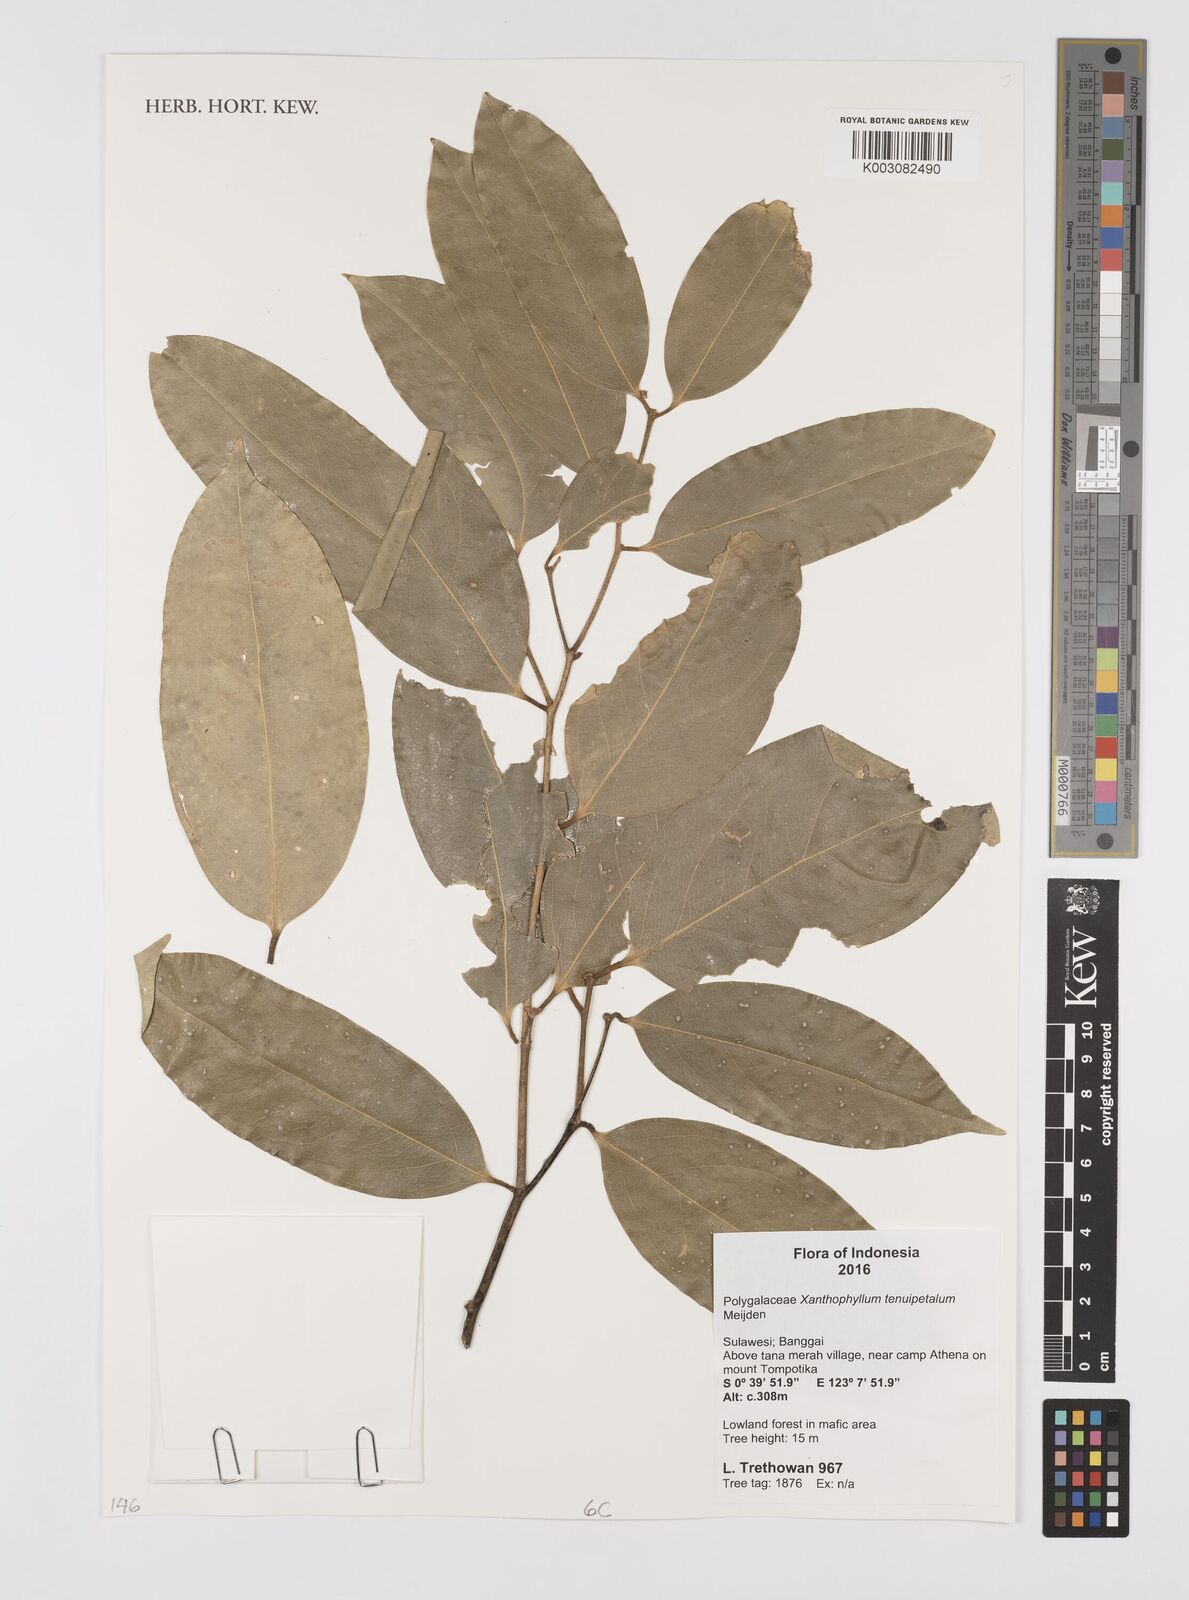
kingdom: Plantae
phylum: Tracheophyta
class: Magnoliopsida
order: Fabales
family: Polygalaceae
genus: Xanthophyllum
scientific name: Xanthophyllum tenuipetalum
